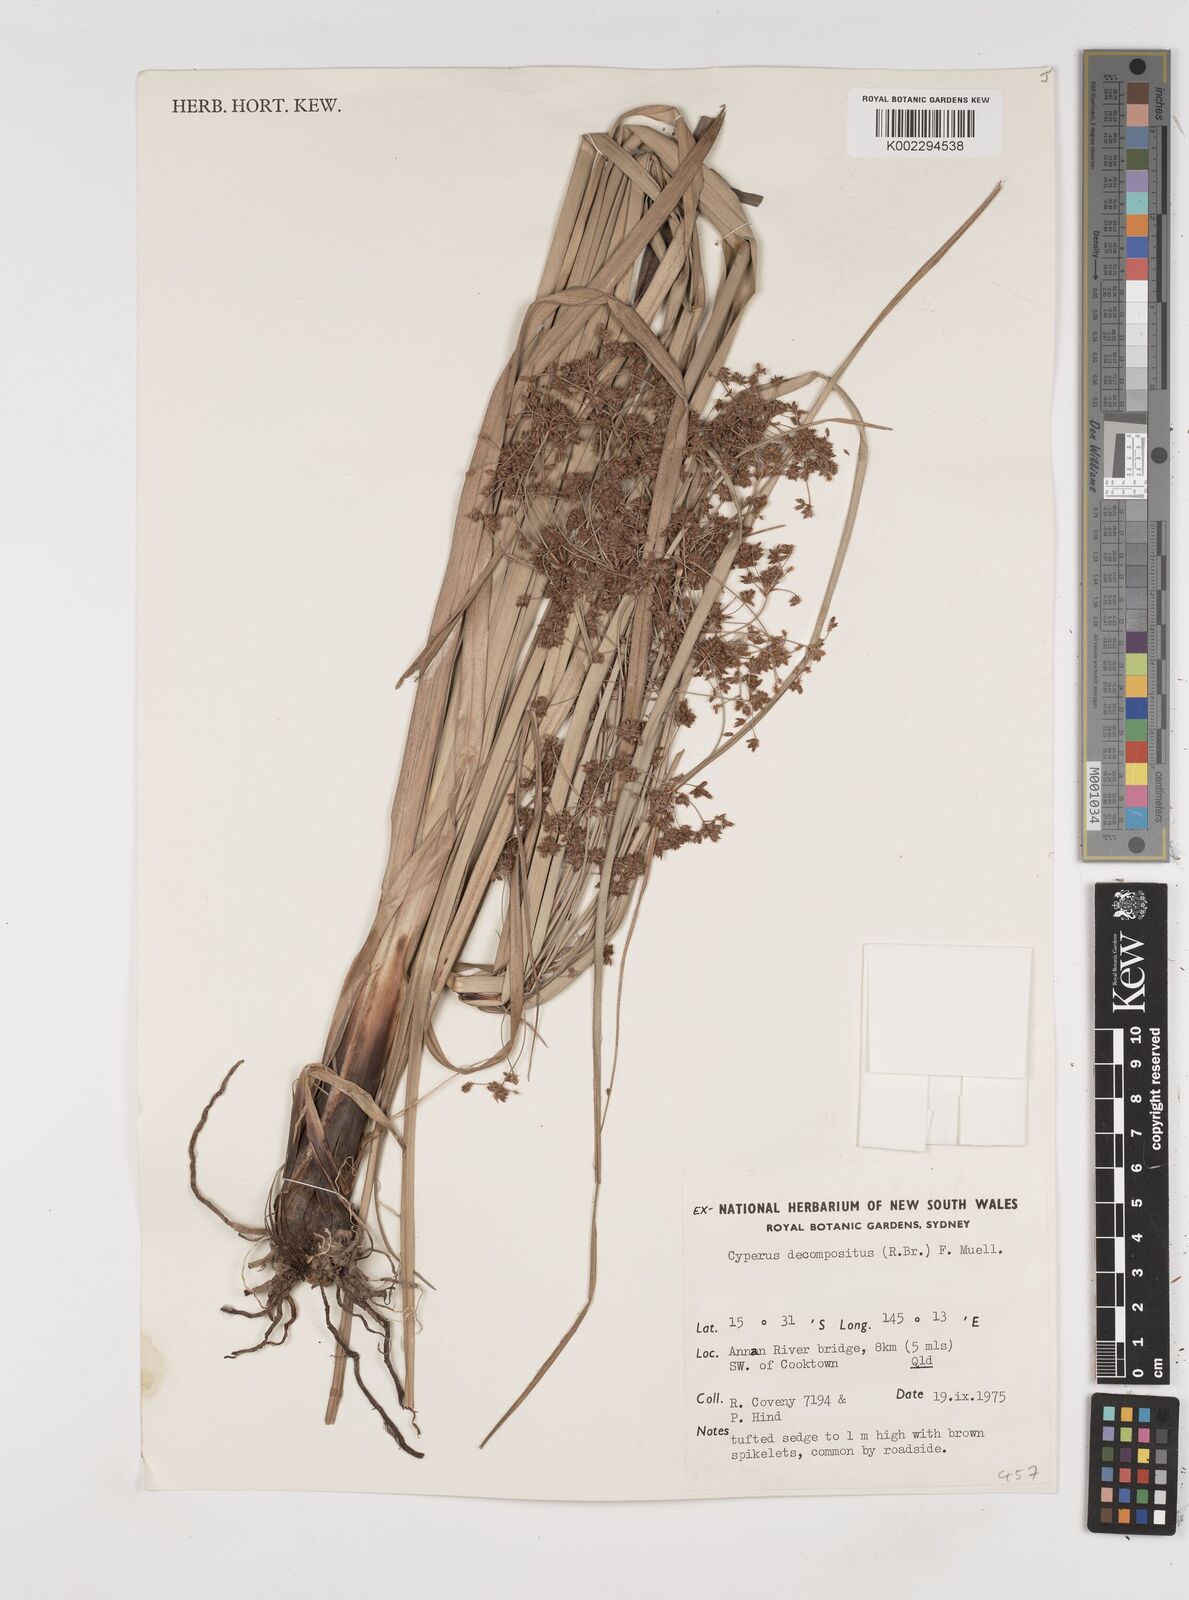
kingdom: Plantae
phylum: Tracheophyta
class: Liliopsida
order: Poales
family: Cyperaceae
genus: Cyperus
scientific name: Cyperus decompositus
